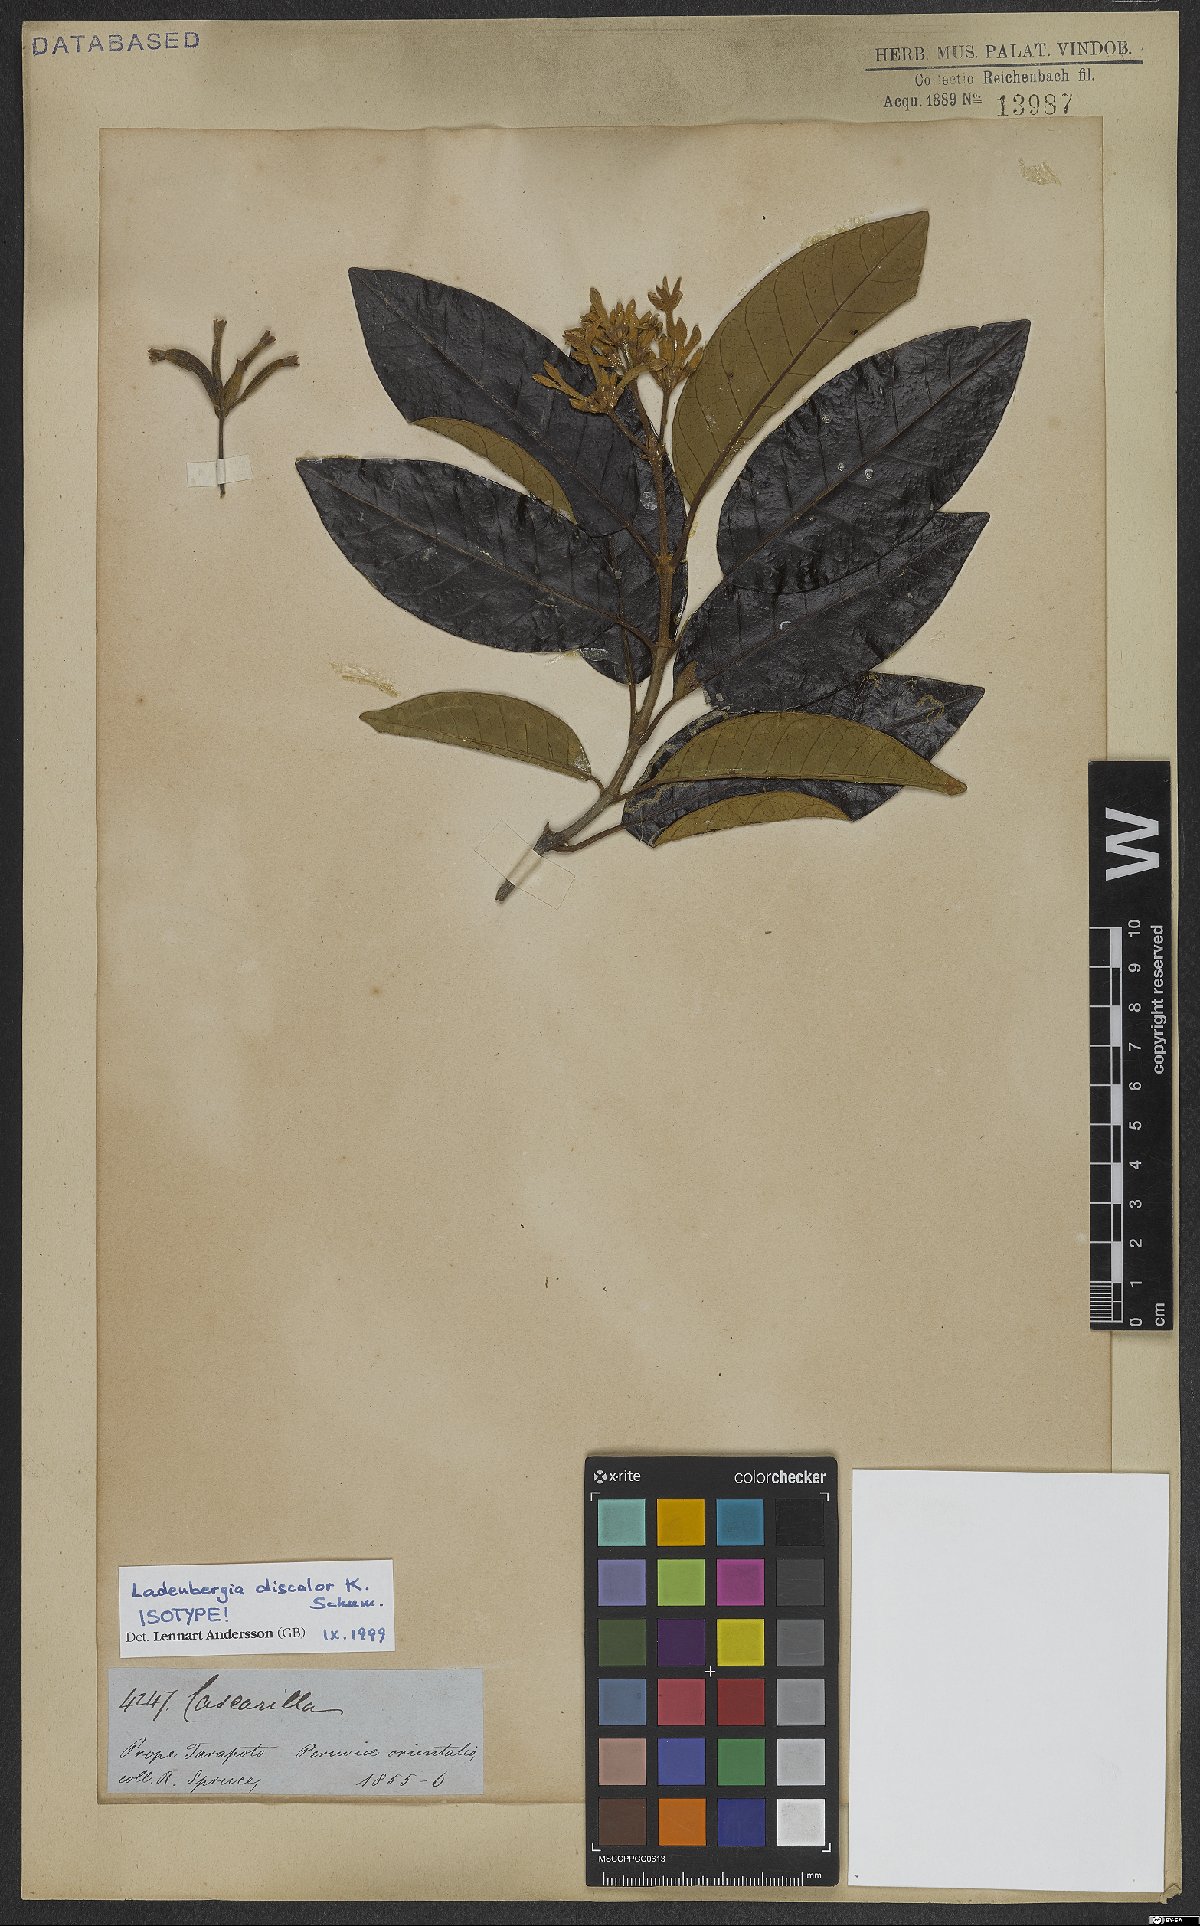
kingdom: Plantae
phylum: Tracheophyta
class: Magnoliopsida
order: Gentianales
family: Rubiaceae
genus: Ladenbergia
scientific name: Ladenbergia discolor
